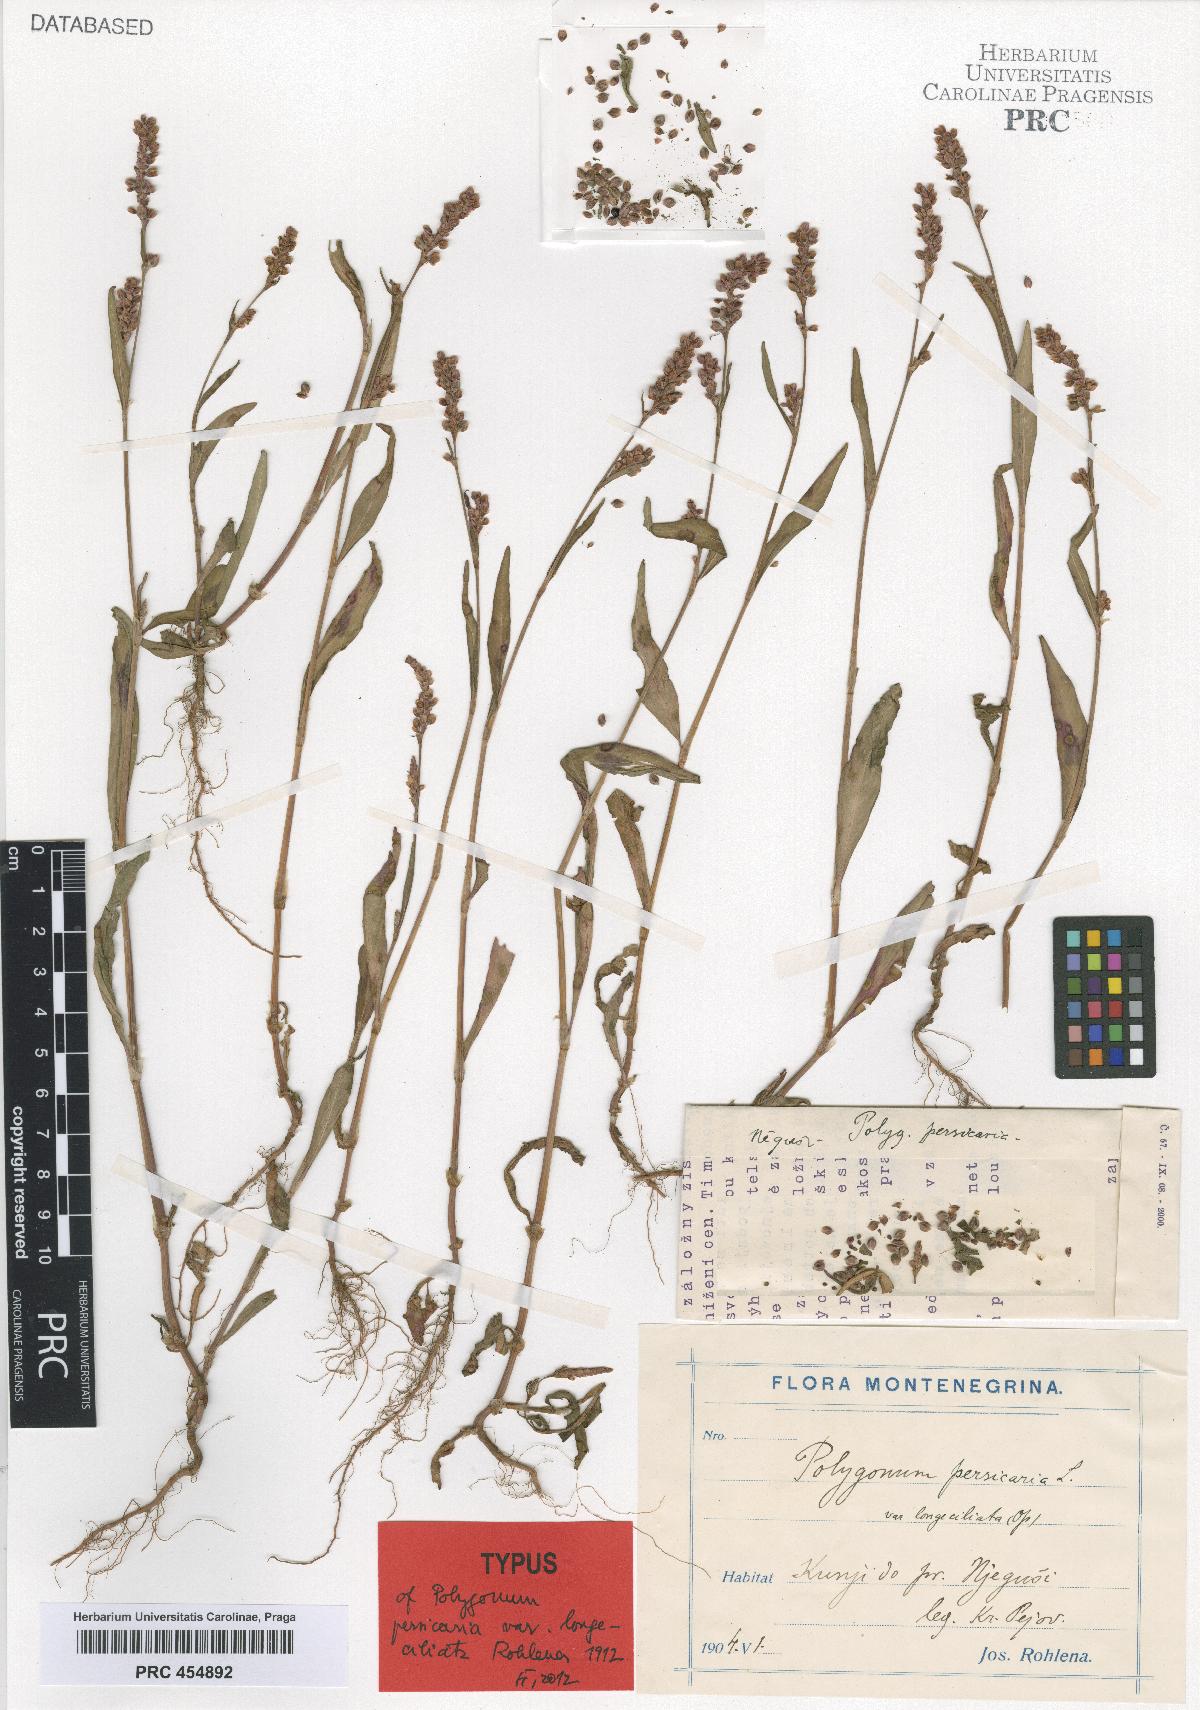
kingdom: Plantae
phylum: Tracheophyta
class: Magnoliopsida
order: Caryophyllales
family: Polygonaceae
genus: Polygonum
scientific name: Polygonum persicaria
